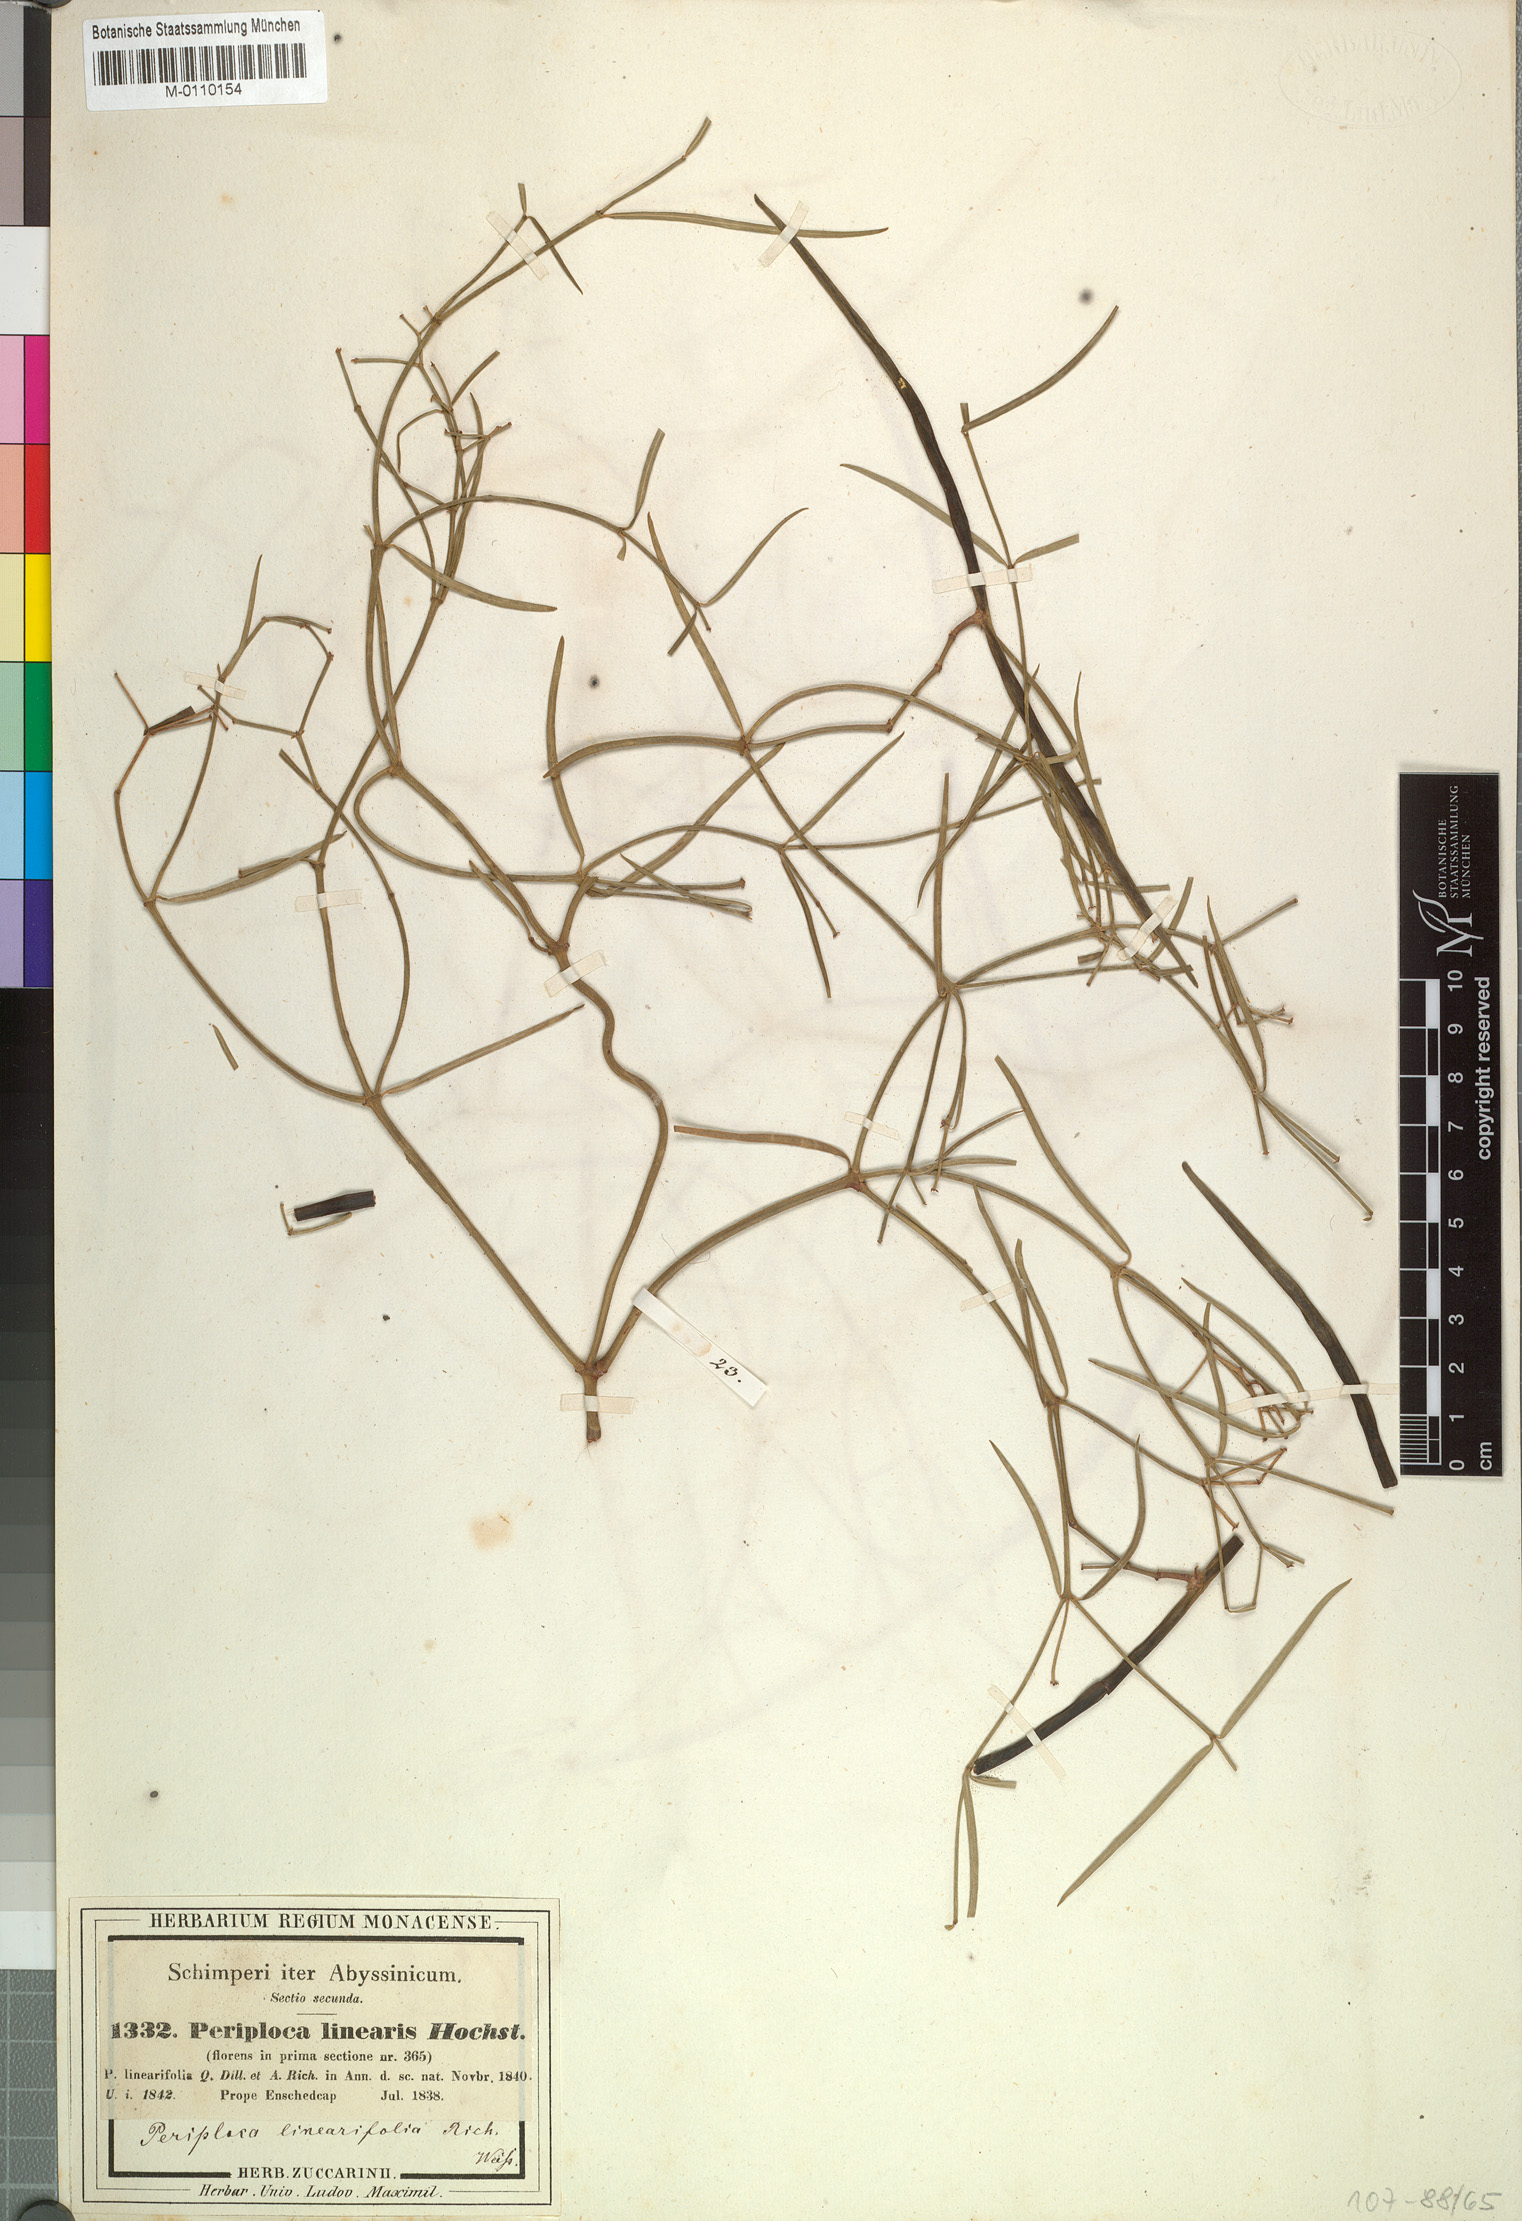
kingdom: Plantae
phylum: Tracheophyta
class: Magnoliopsida
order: Gentianales
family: Apocynaceae
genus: Periploca
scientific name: Periploca linearifolia
